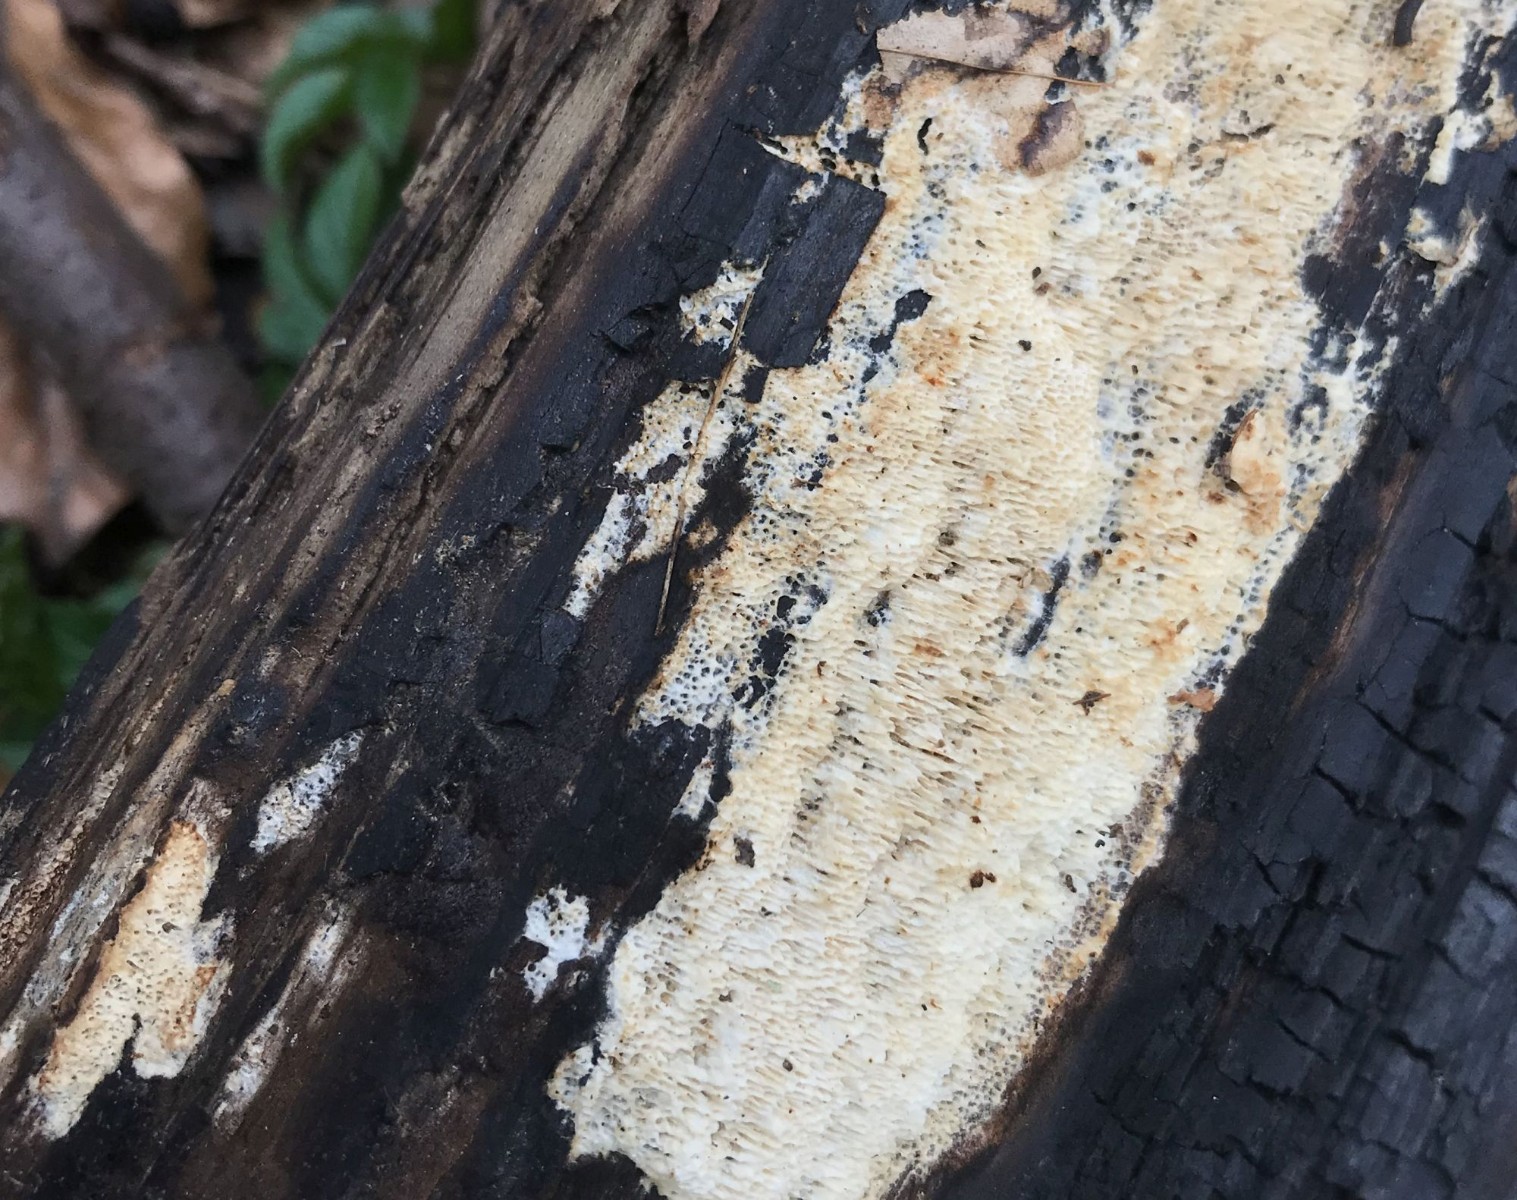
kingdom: Fungi
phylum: Basidiomycota
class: Agaricomycetes
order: Polyporales
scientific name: Polyporales
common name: poresvampordenen
